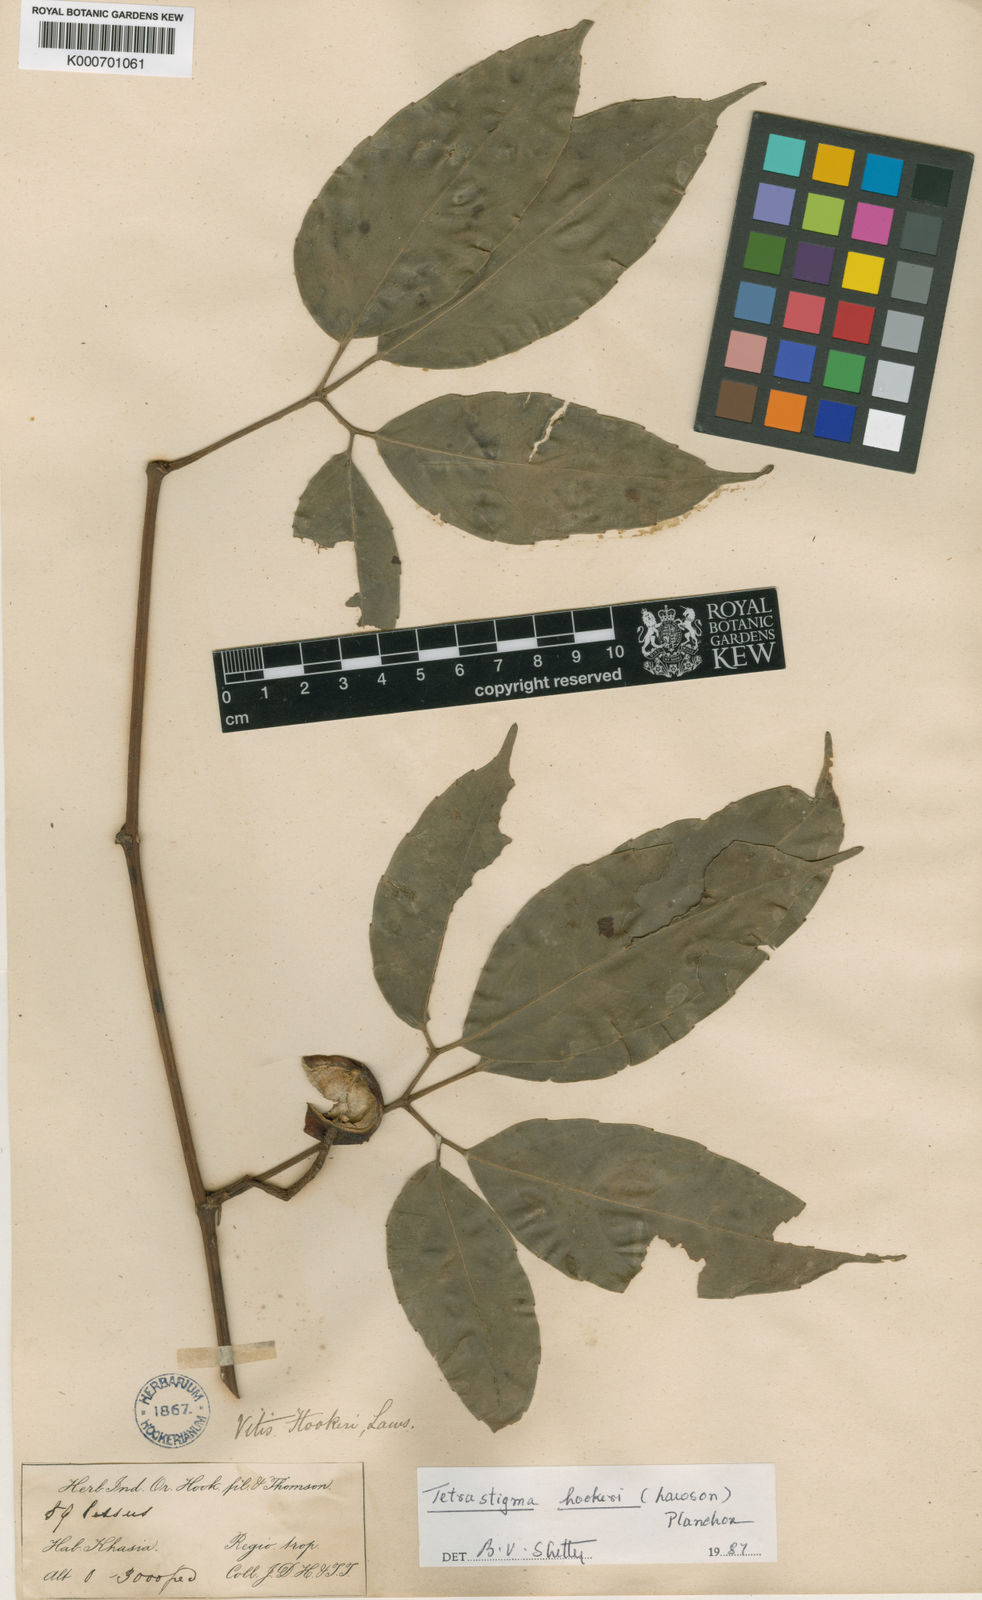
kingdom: Plantae
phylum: Tracheophyta
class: Magnoliopsida
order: Vitales
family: Vitaceae
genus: Tetrastigma
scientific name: Tetrastigma hookeri
